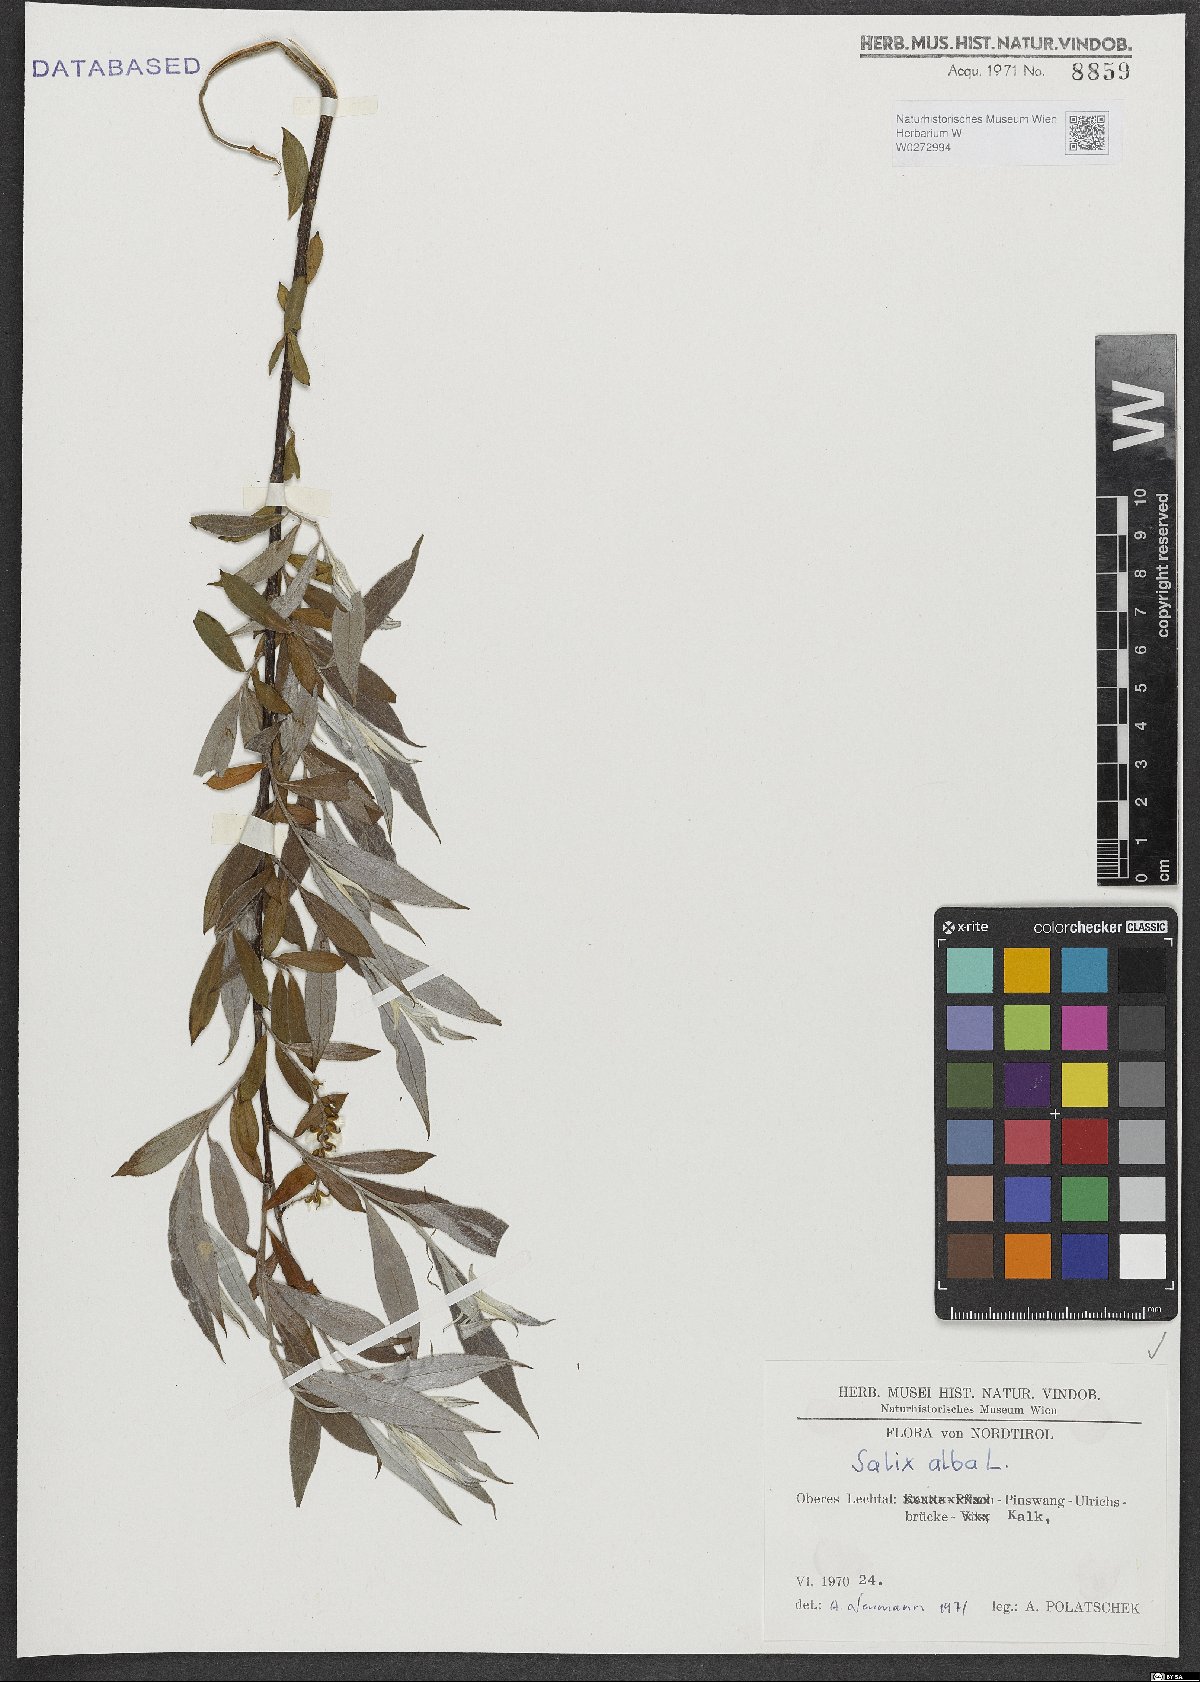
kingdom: Plantae
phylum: Tracheophyta
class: Magnoliopsida
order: Malpighiales
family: Salicaceae
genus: Salix
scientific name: Salix alba
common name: White willow
